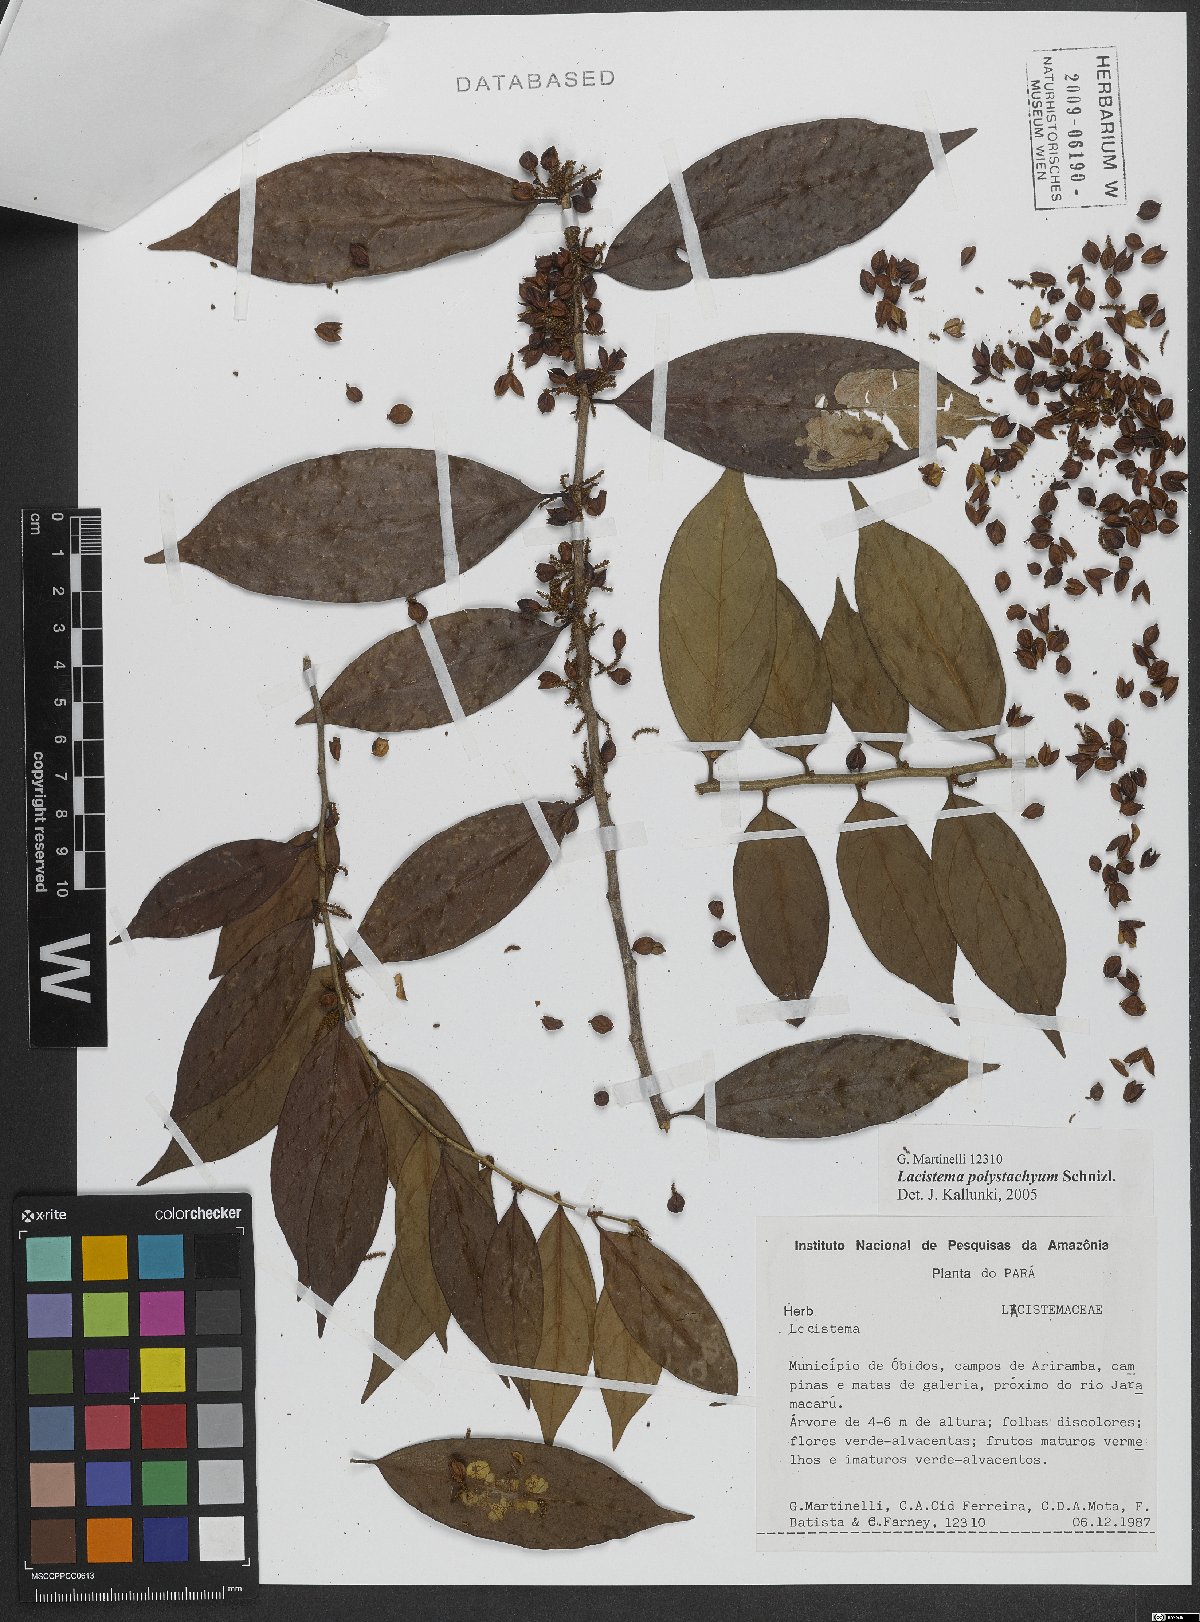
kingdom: Plantae
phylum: Tracheophyta
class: Magnoliopsida
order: Malpighiales
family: Lacistemataceae
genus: Lacistema
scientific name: Lacistema polystachyum
